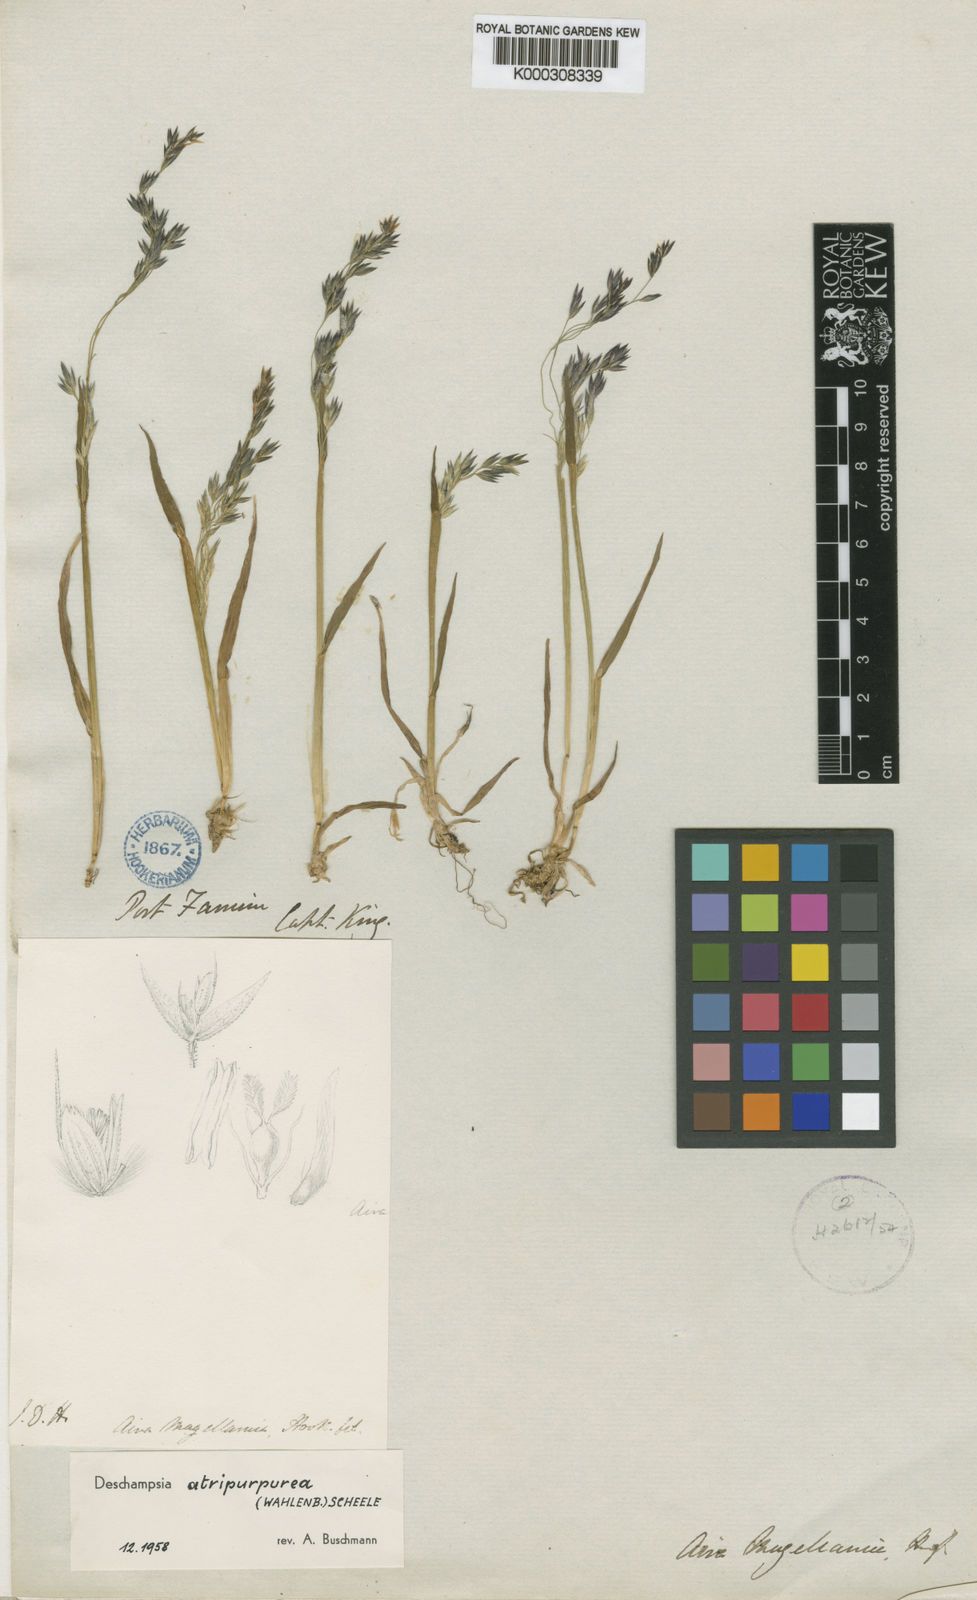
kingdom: Plantae
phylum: Tracheophyta
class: Liliopsida
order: Poales
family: Poaceae
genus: Vahlodea
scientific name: Vahlodea atropurpurea
